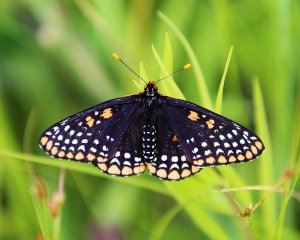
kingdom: Animalia
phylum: Arthropoda
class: Insecta
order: Lepidoptera
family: Nymphalidae
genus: Euphydryas
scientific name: Euphydryas phaeton
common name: Baltimore Checkerspot
